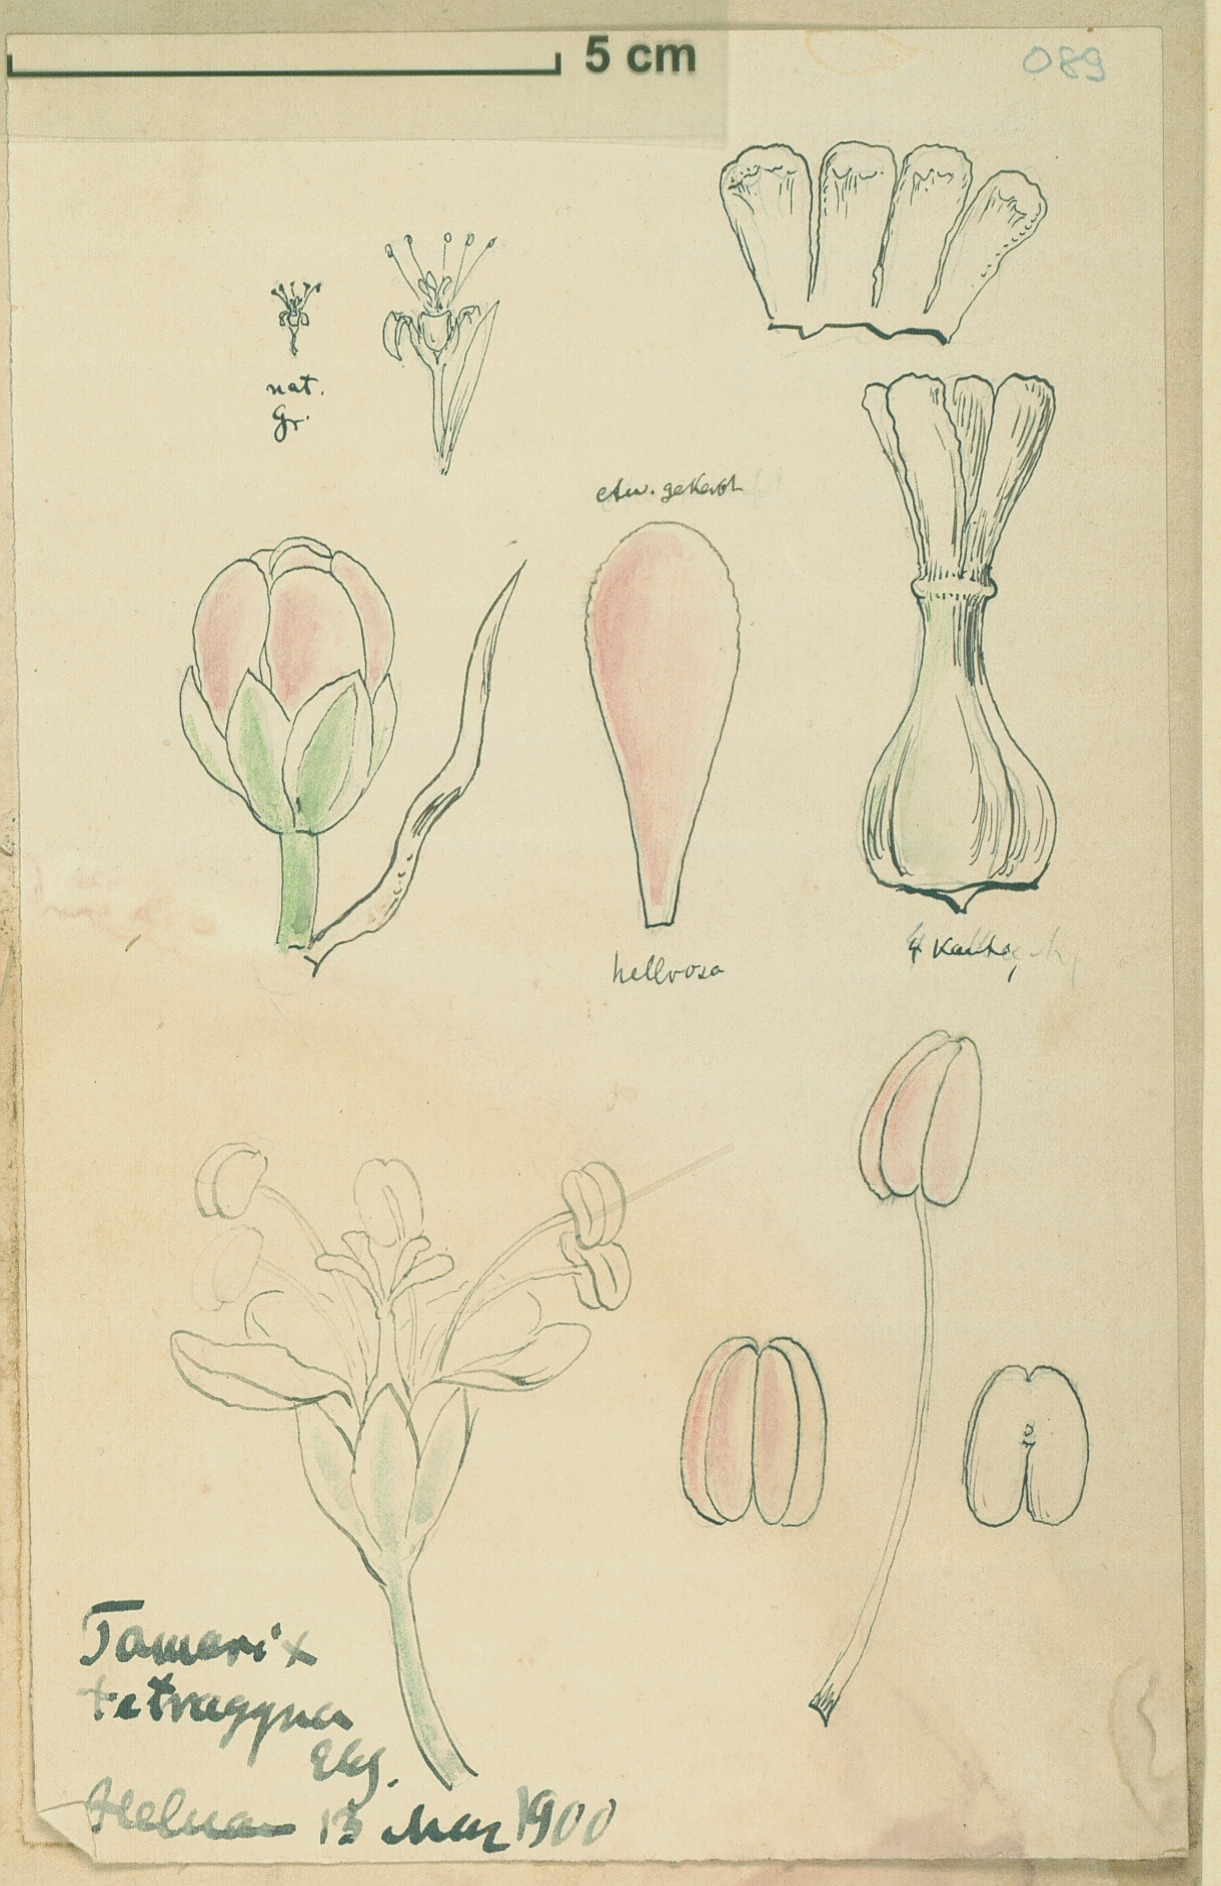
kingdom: Plantae
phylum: Tracheophyta
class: Magnoliopsida
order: Caryophyllales
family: Tamaricaceae
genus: Tamarix
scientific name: Tamarix tetragyna
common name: Four-stamen tamarisk
